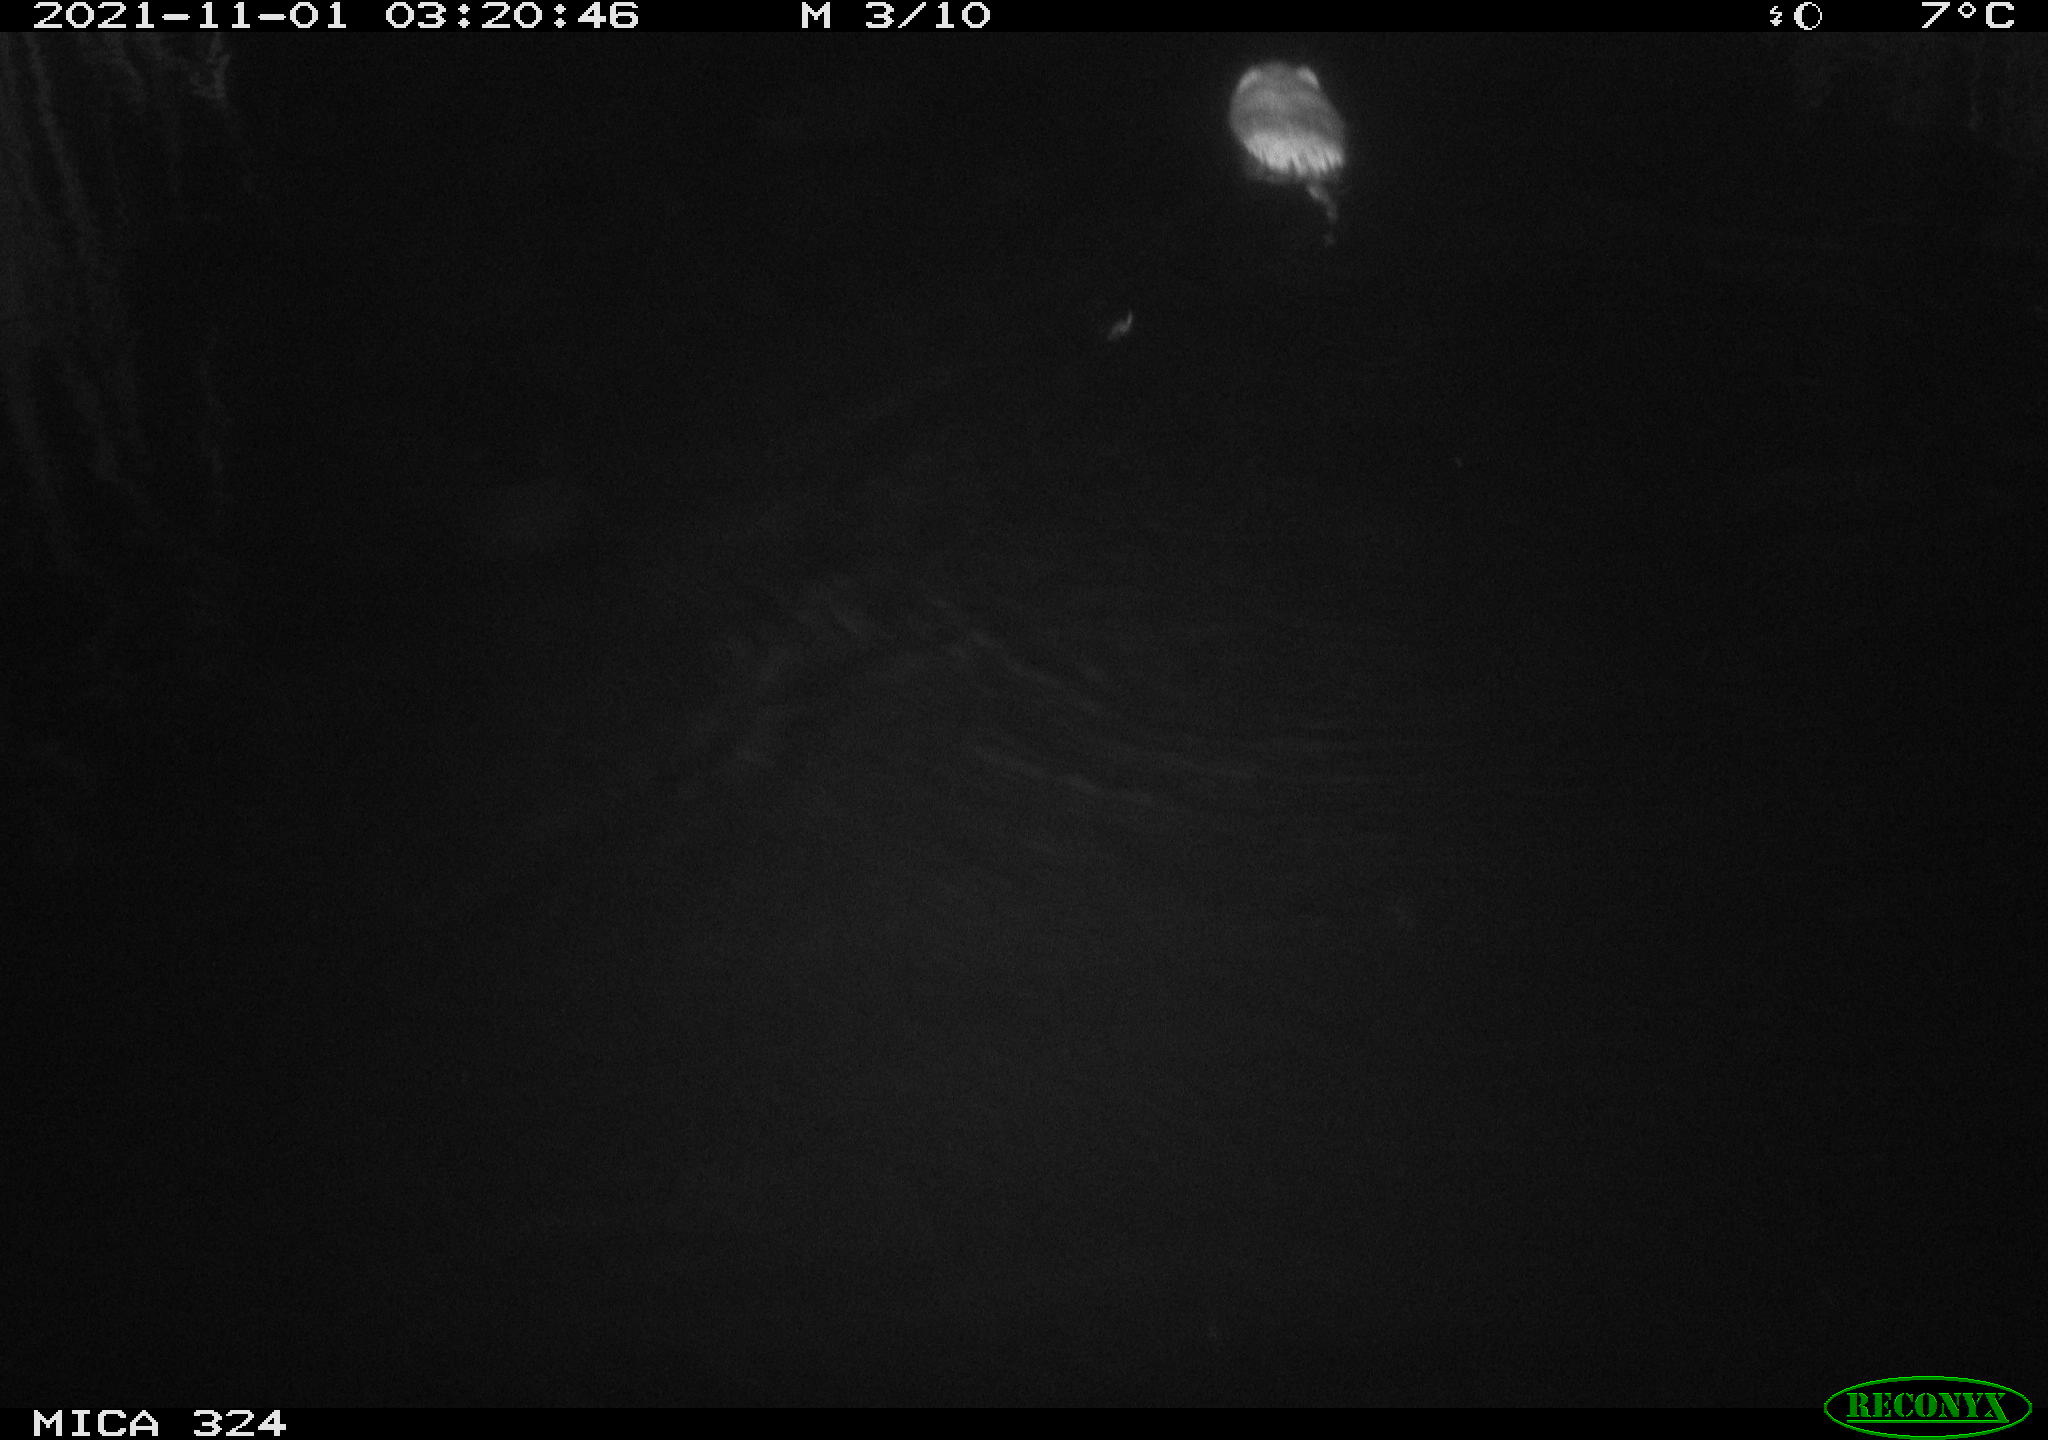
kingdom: Animalia
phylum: Chordata
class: Mammalia
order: Rodentia
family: Cricetidae
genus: Ondatra
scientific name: Ondatra zibethicus
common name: Muskrat
